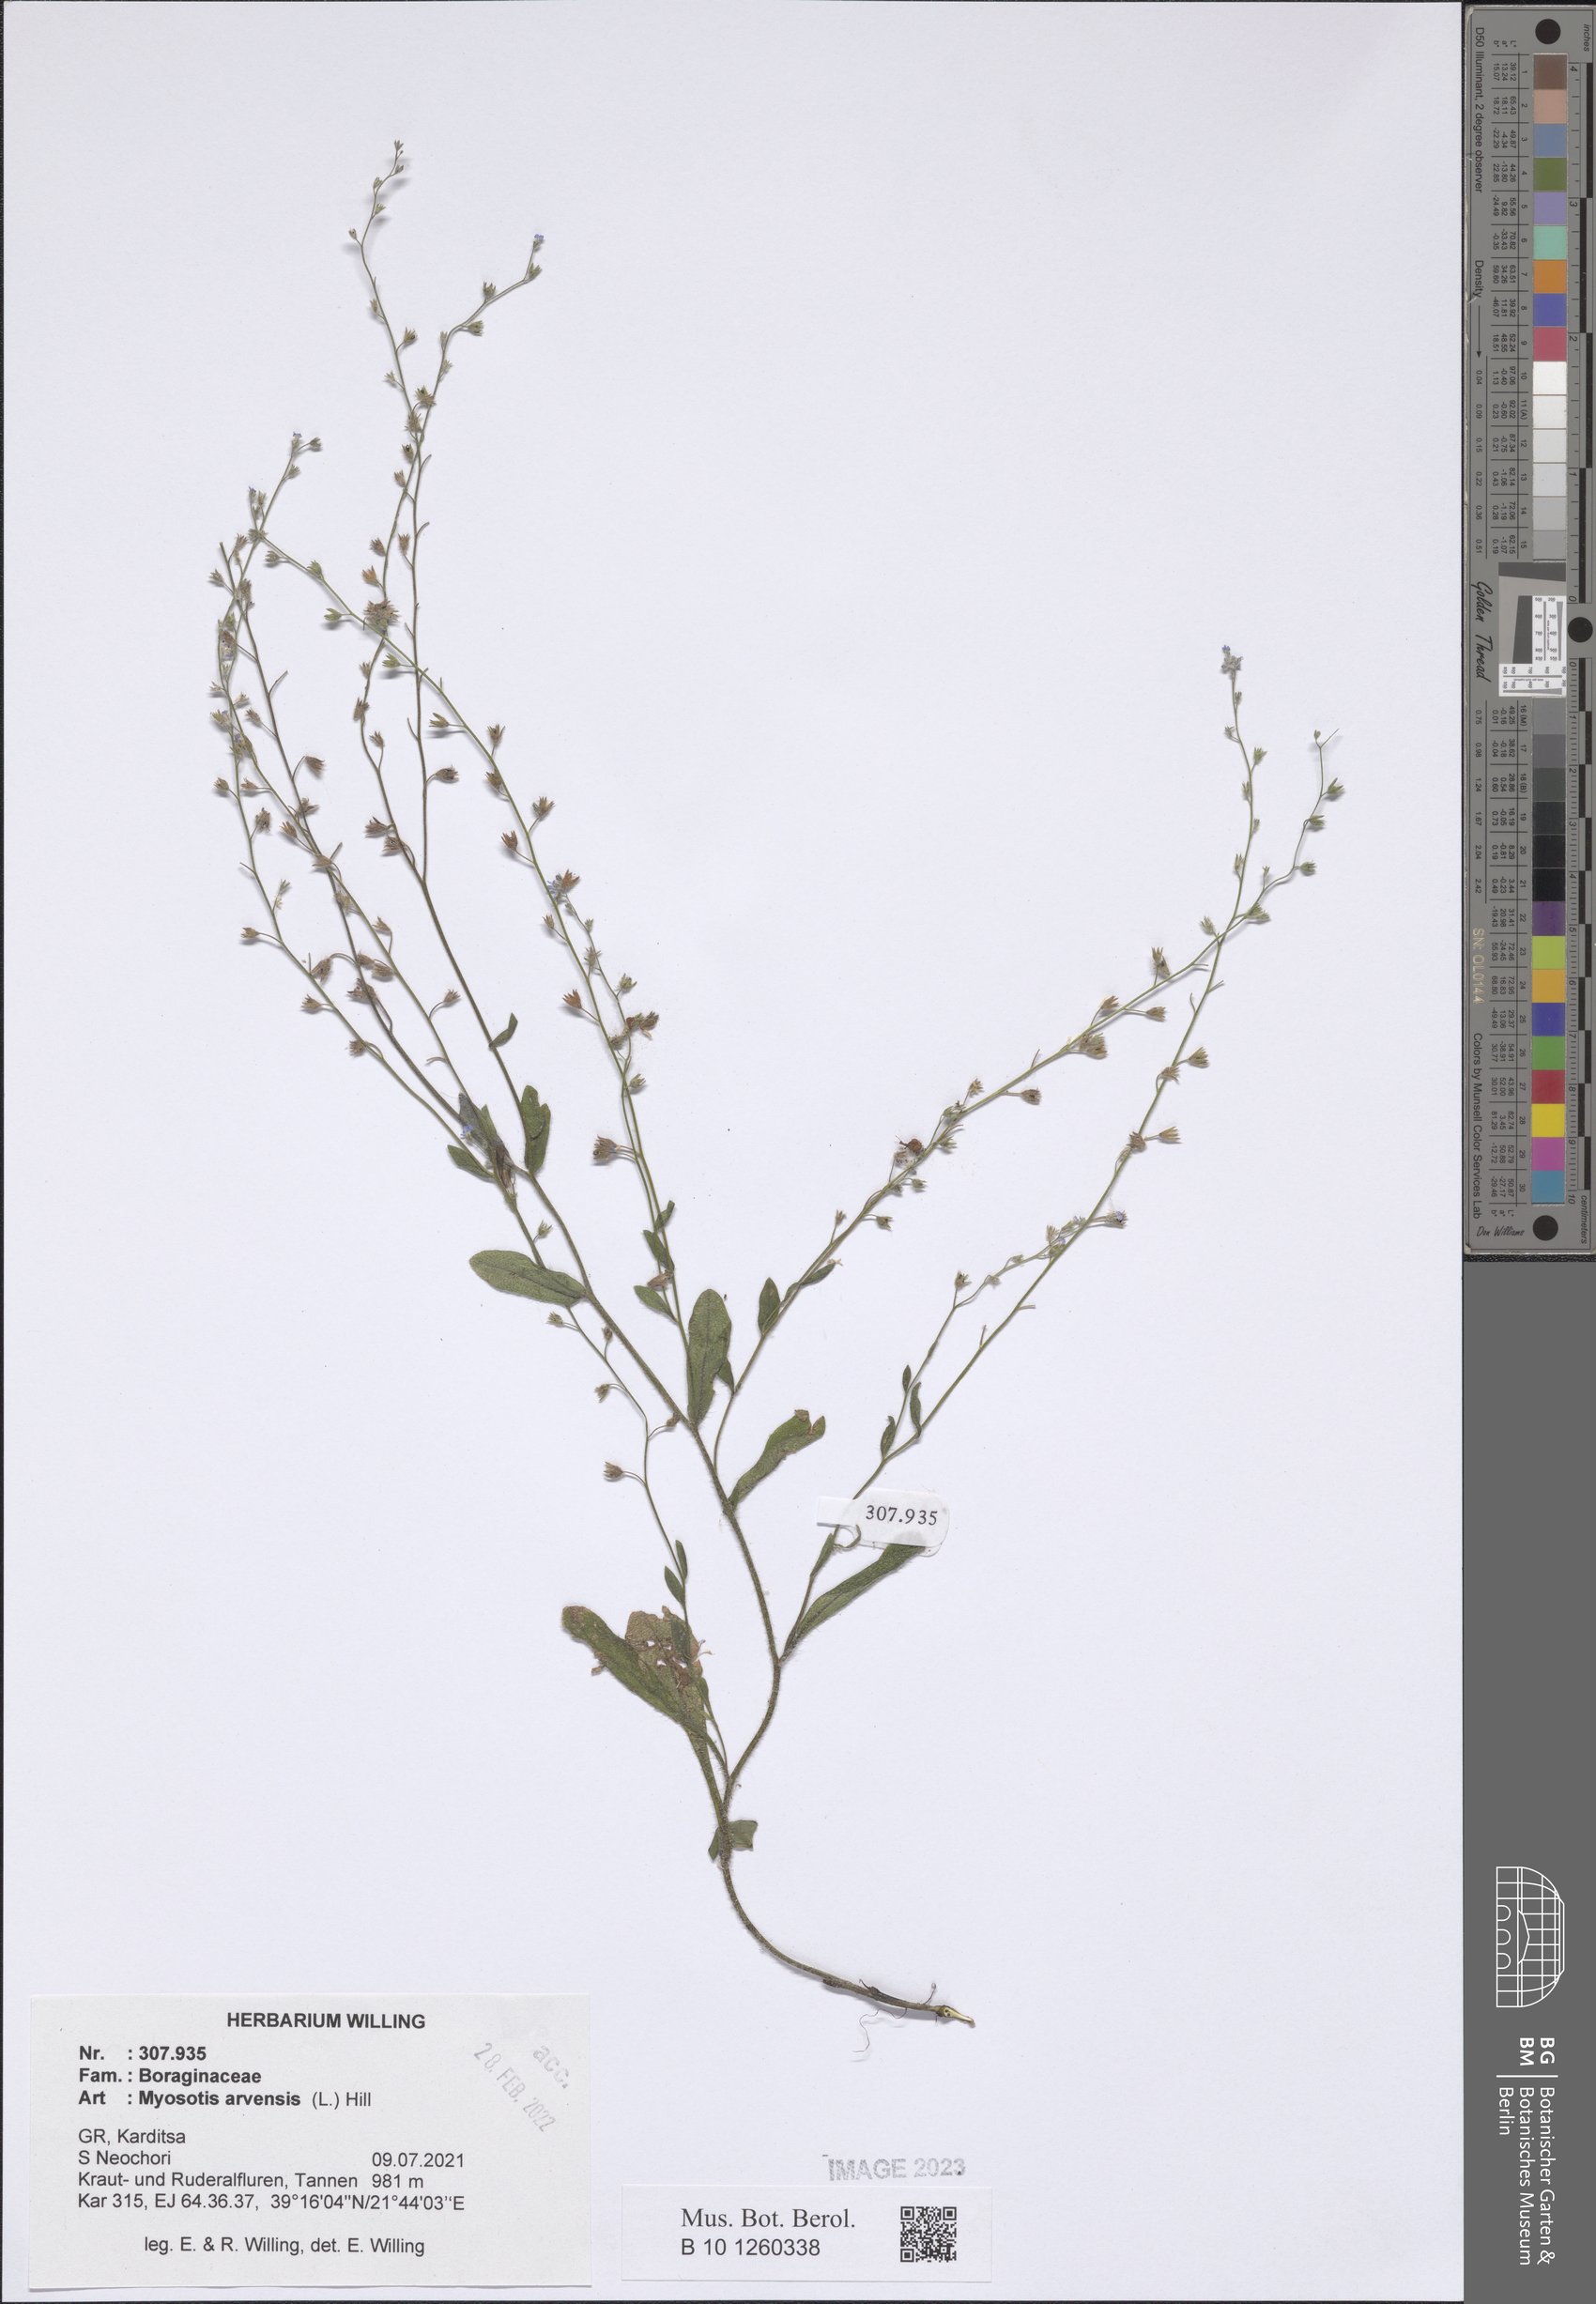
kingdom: Plantae
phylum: Tracheophyta
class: Magnoliopsida
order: Boraginales
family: Boraginaceae
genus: Myosotis
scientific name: Myosotis arvensis
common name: Field forget-me-not
